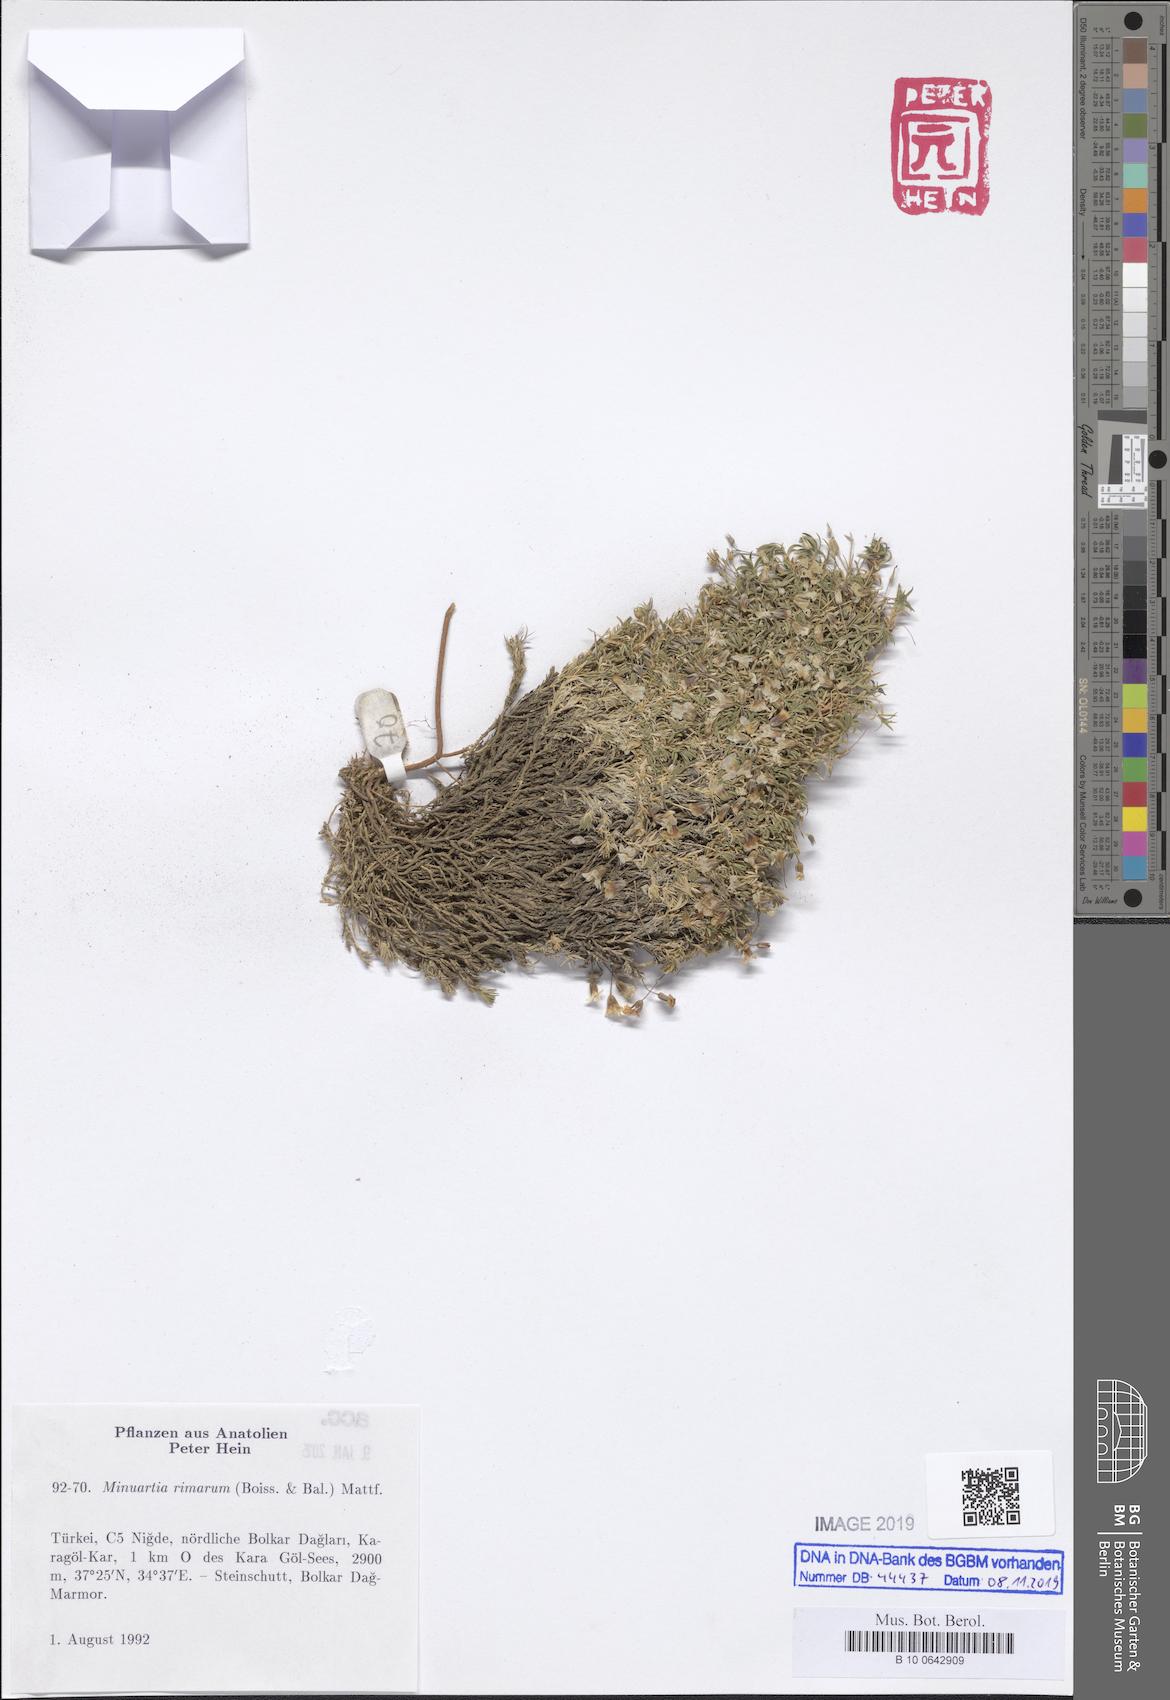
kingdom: Plantae
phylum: Tracheophyta
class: Magnoliopsida
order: Caryophyllales
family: Caryophyllaceae
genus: Sabulina
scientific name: Sabulina rimarum
